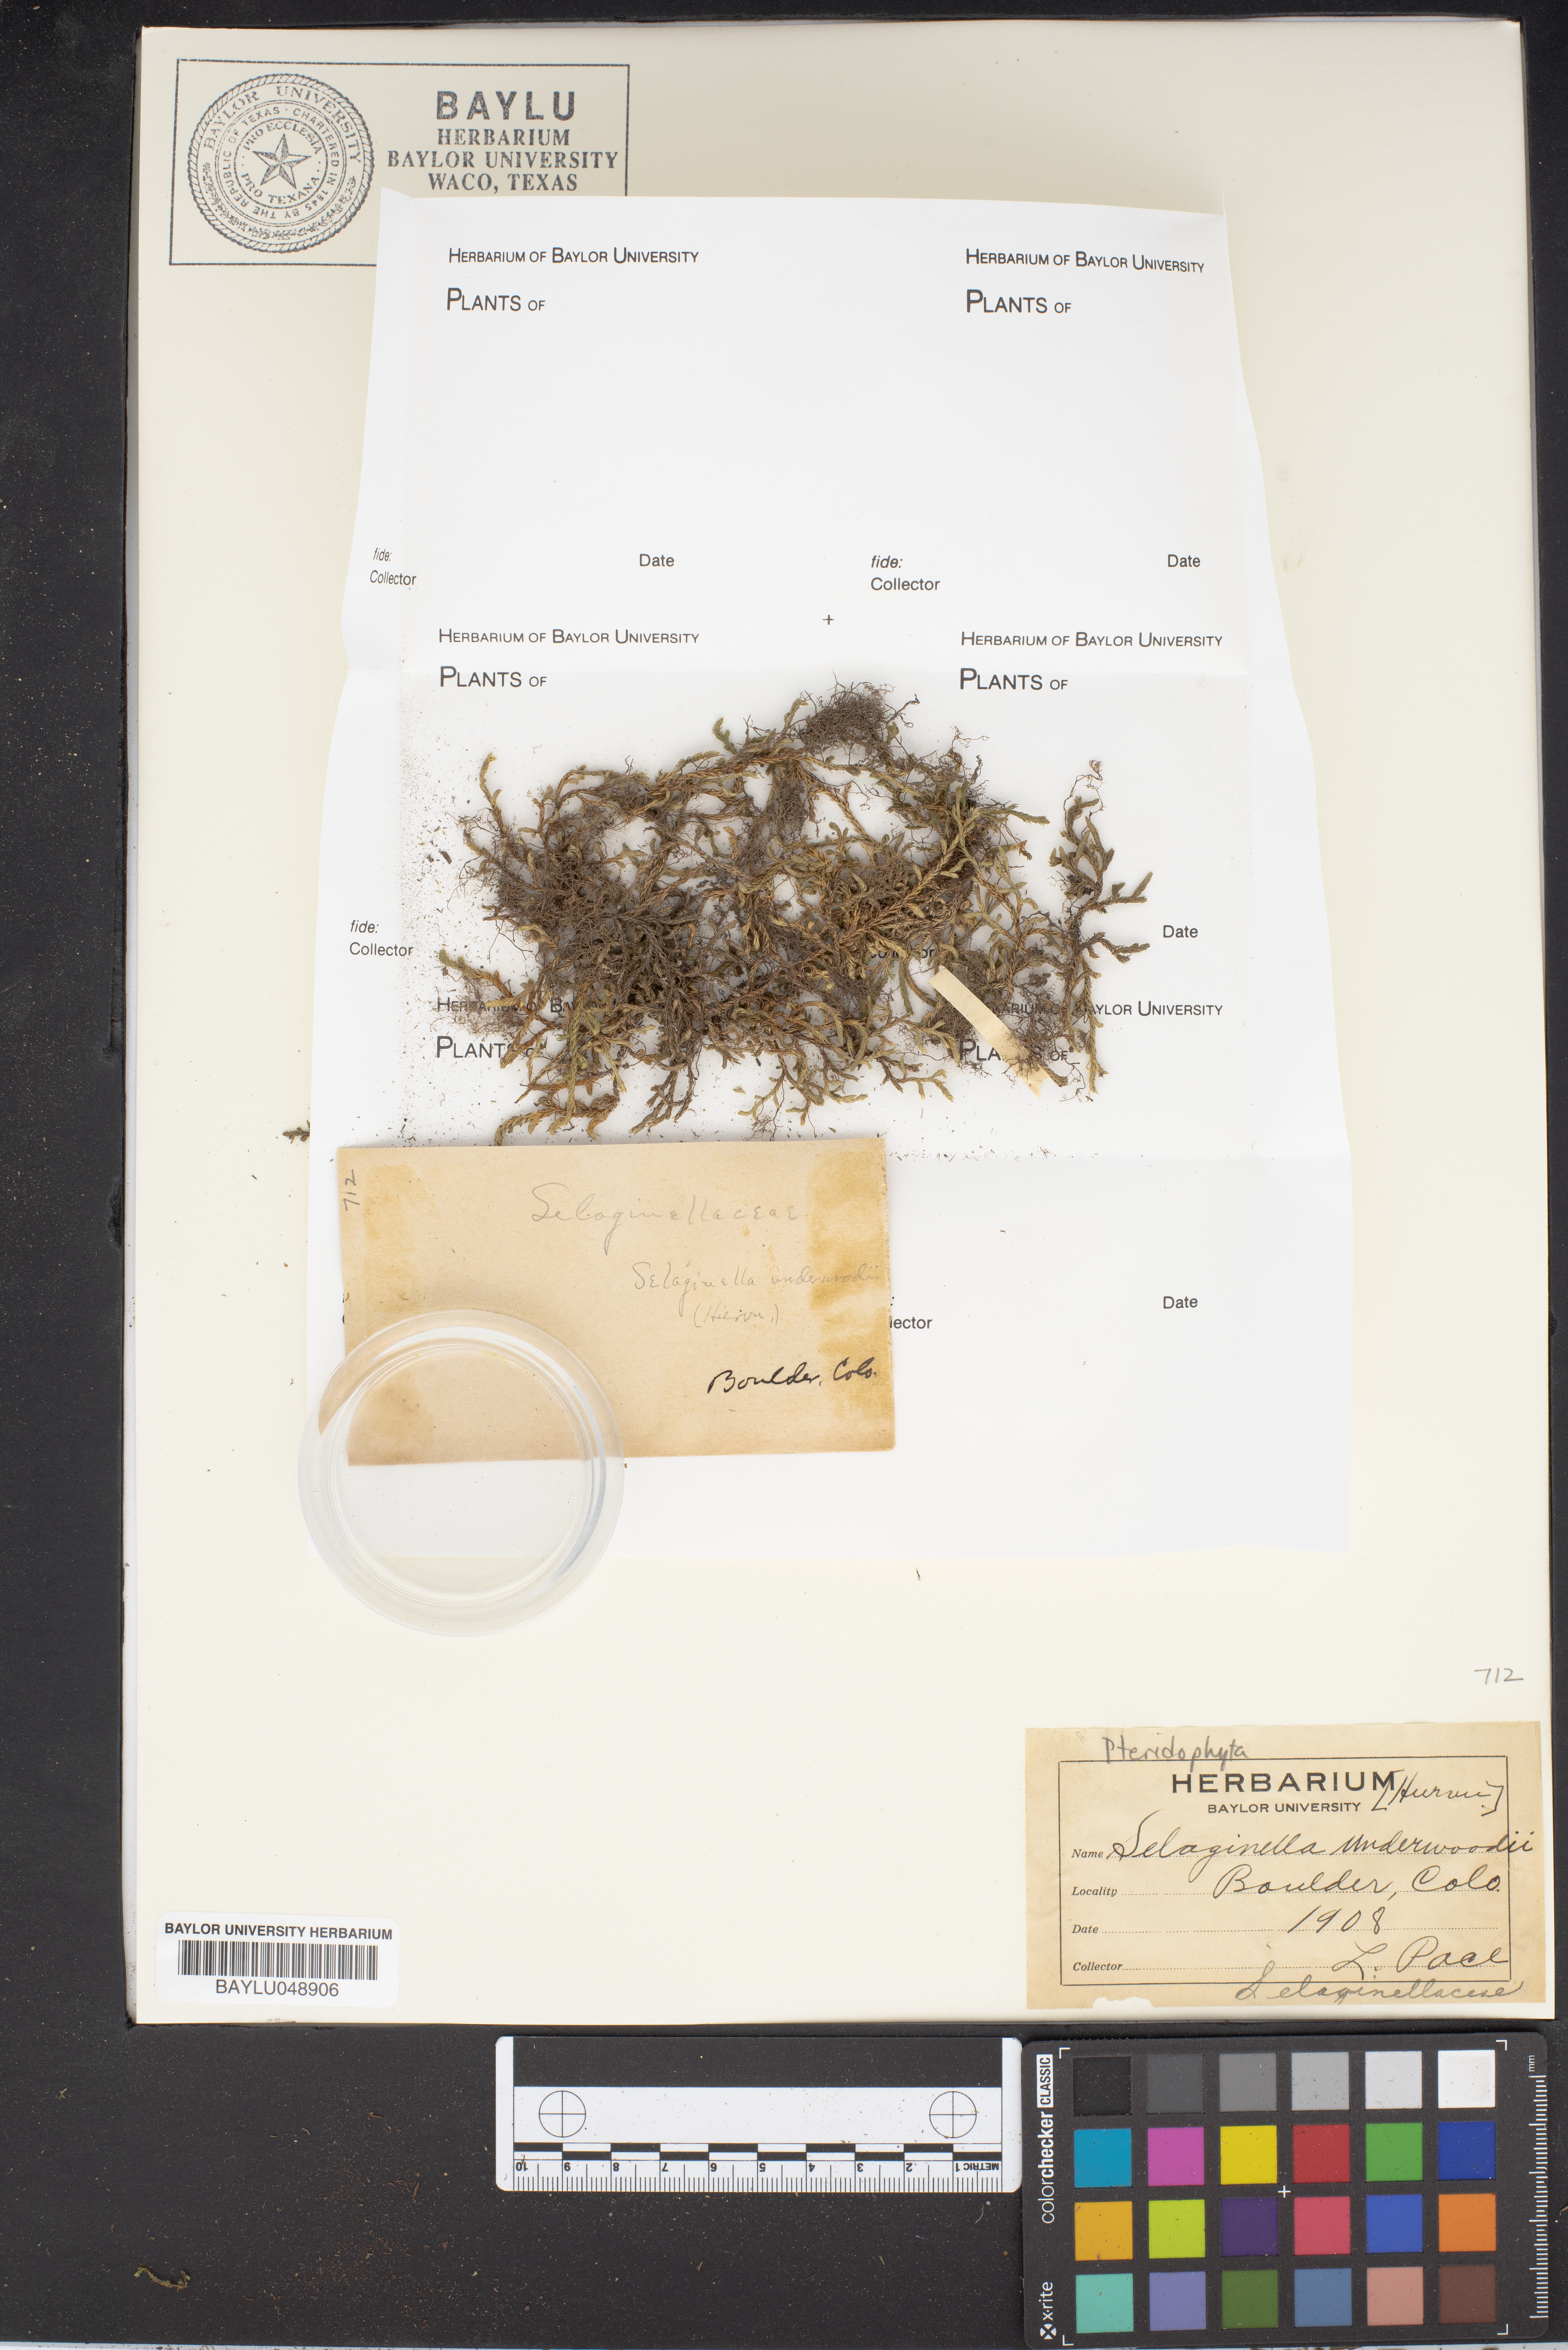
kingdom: Plantae
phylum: Tracheophyta
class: Lycopodiopsida
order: Selaginellales
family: Selaginellaceae
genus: Selaginella
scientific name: Selaginella underwoodii
